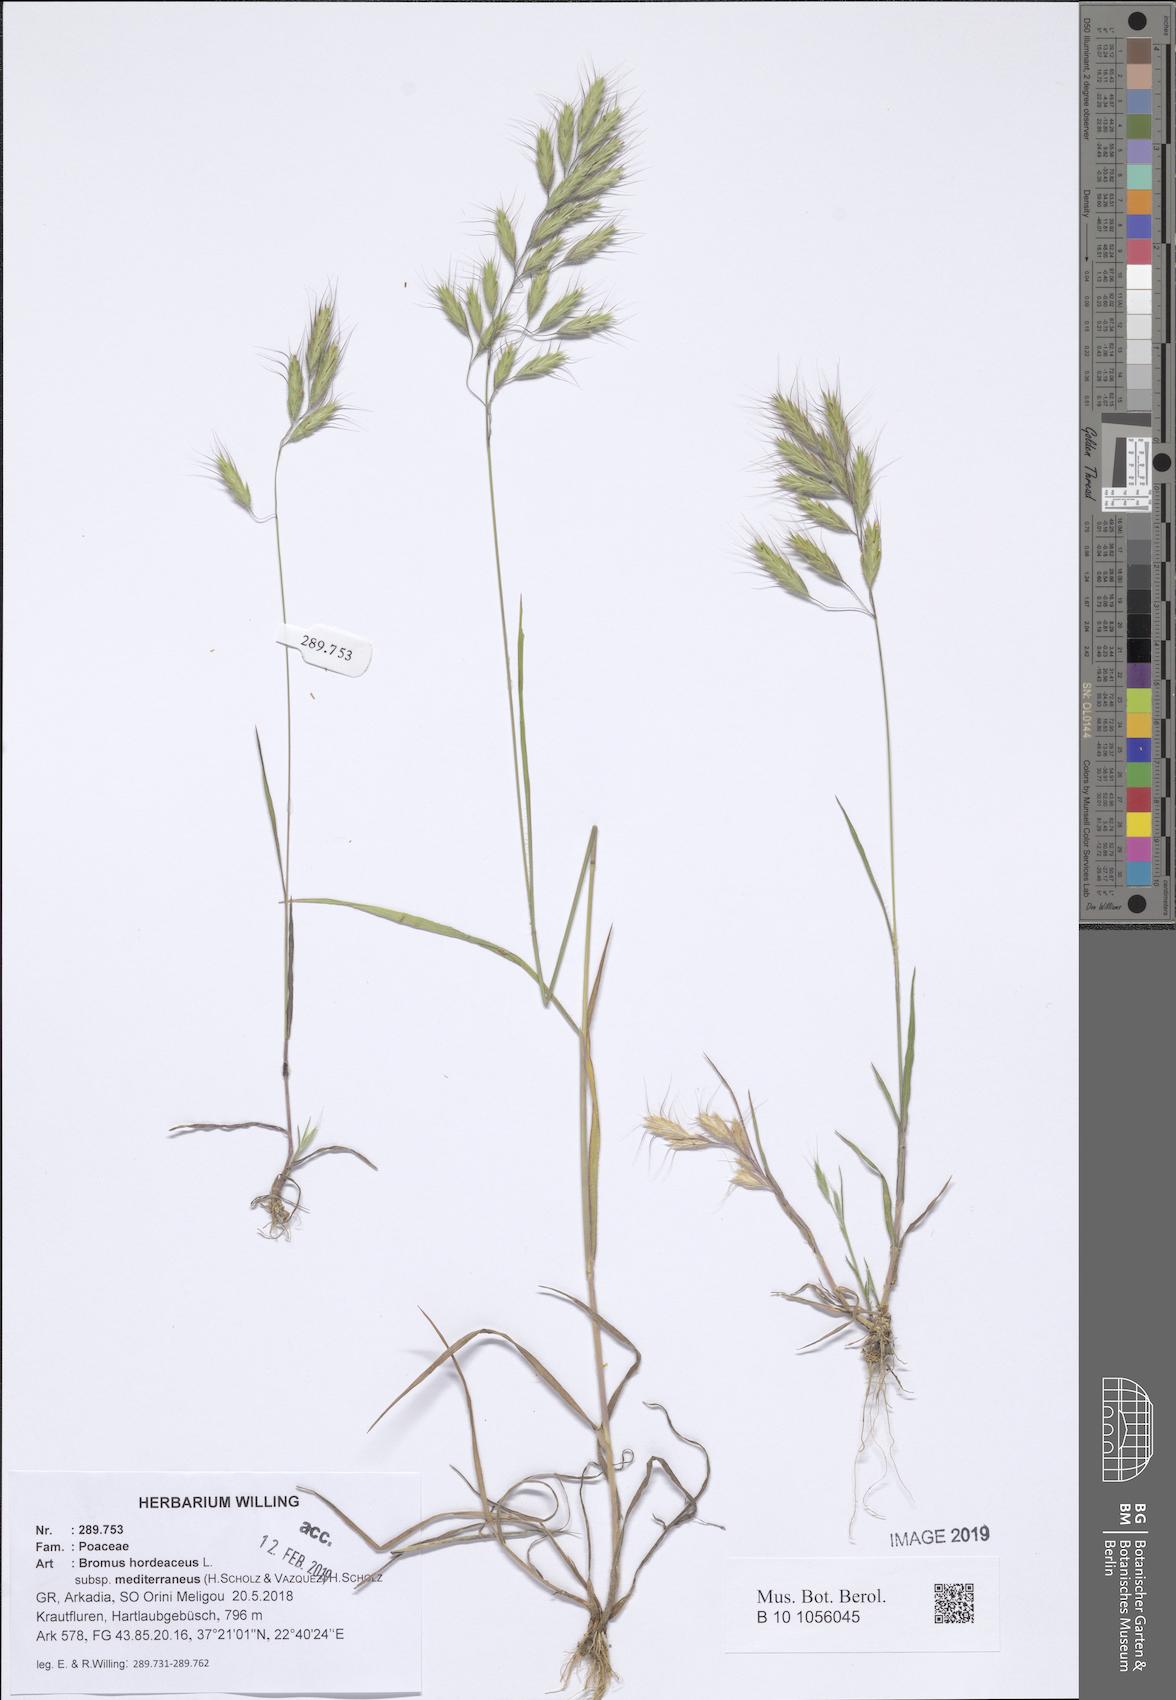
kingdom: Plantae
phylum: Tracheophyta
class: Liliopsida
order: Poales
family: Poaceae
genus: Bromus
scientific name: Bromus hordeaceus
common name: Soft brome
